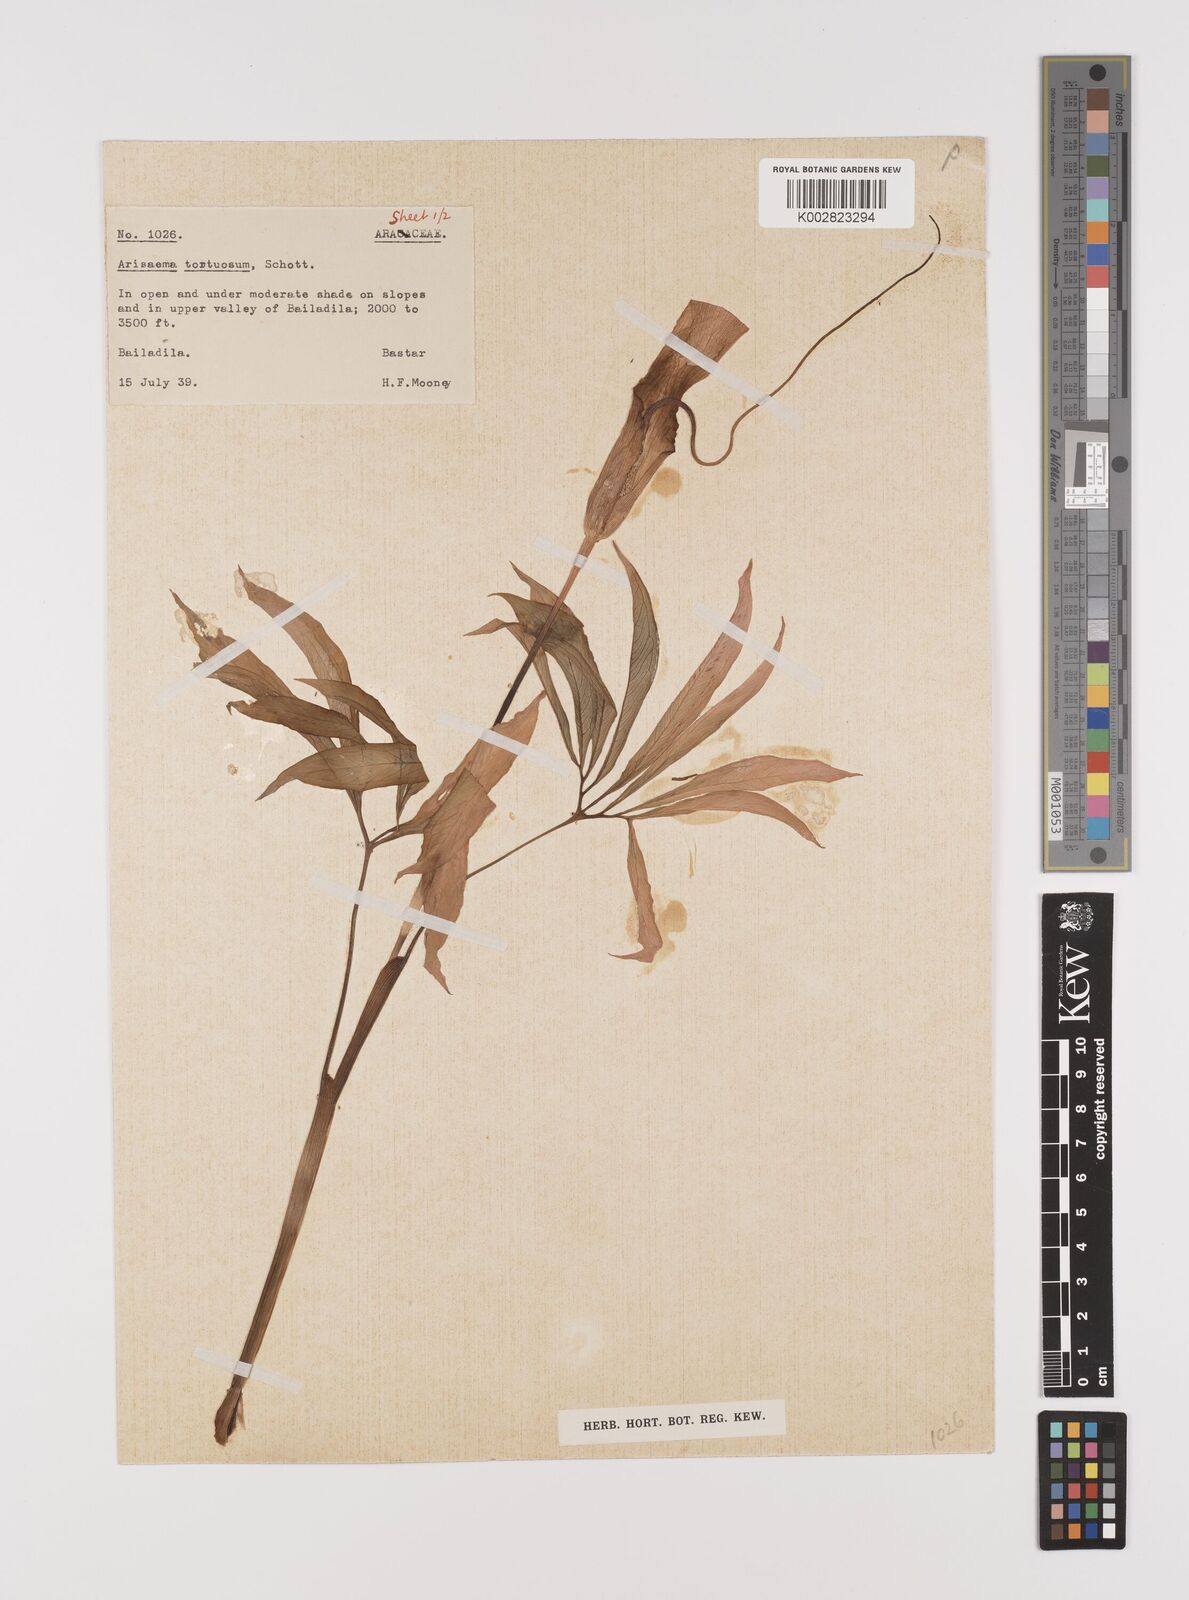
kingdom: Plantae
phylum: Tracheophyta
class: Liliopsida
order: Alismatales
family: Araceae
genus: Arisaema
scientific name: Arisaema tortuosum
